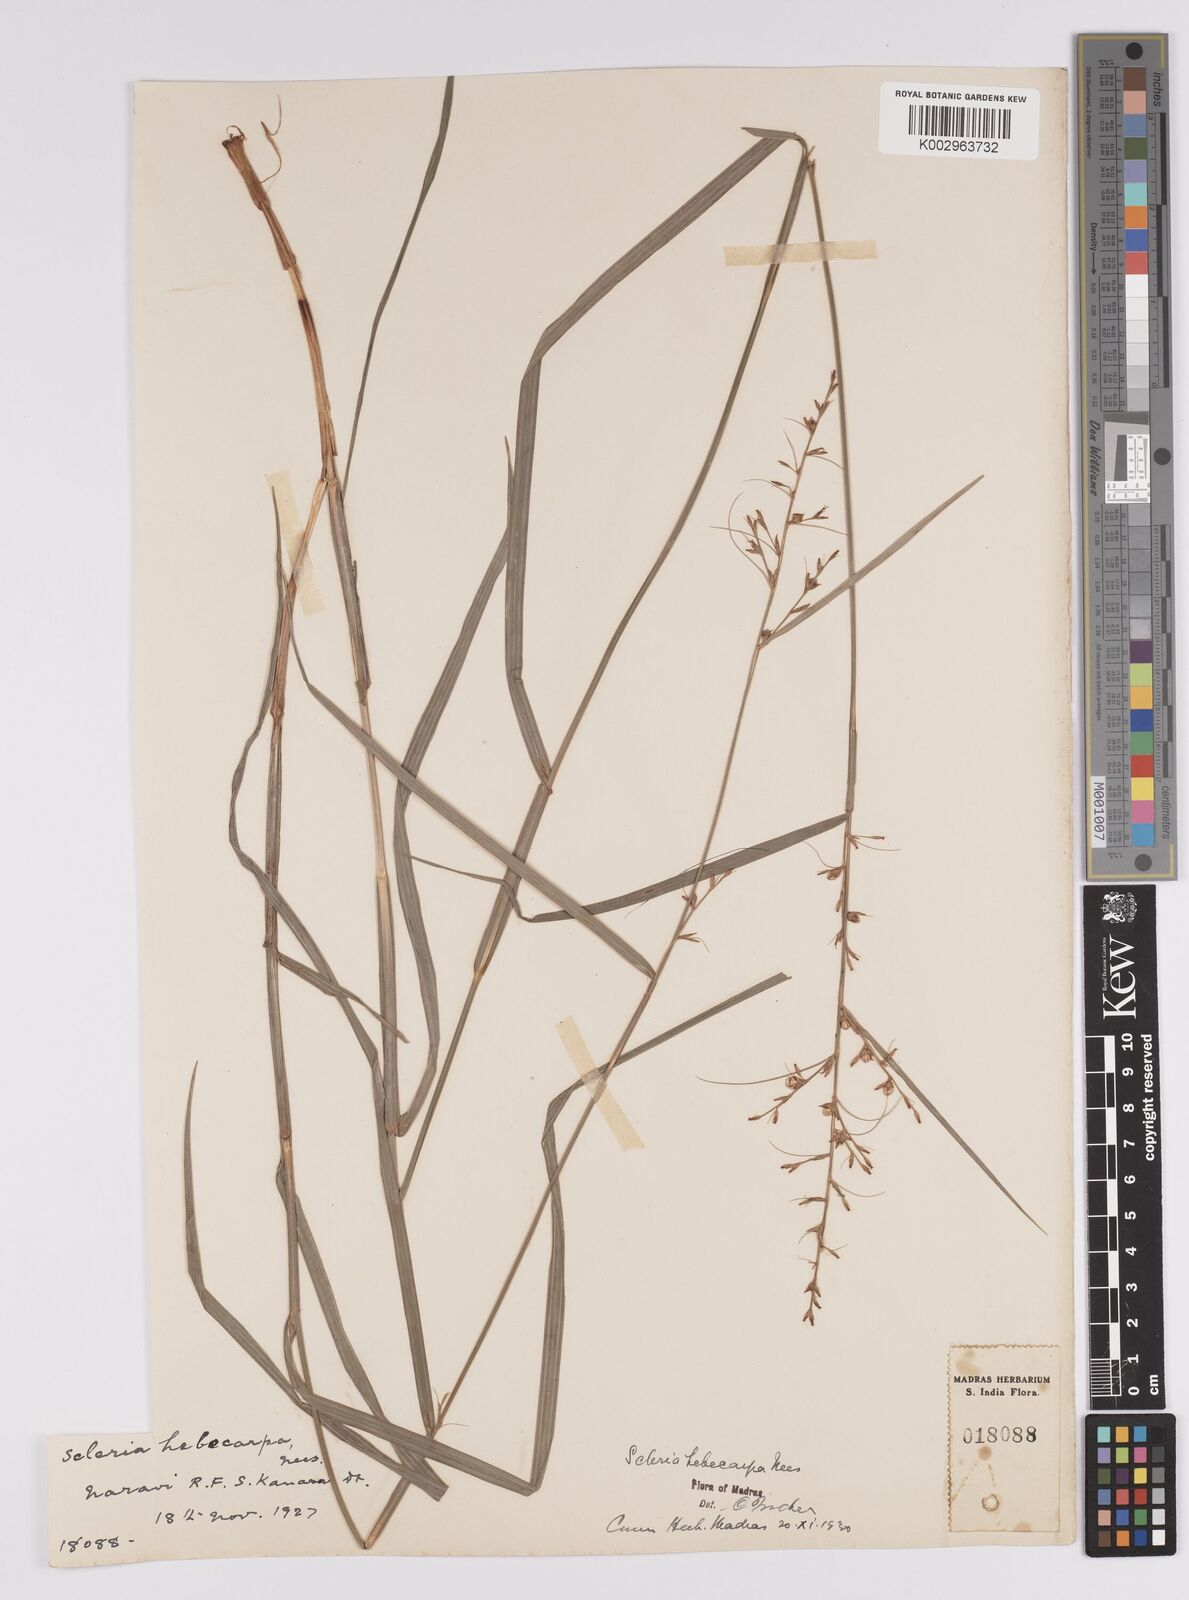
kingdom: Plantae
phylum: Tracheophyta
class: Liliopsida
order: Poales
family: Cyperaceae
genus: Scleria
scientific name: Scleria levis
